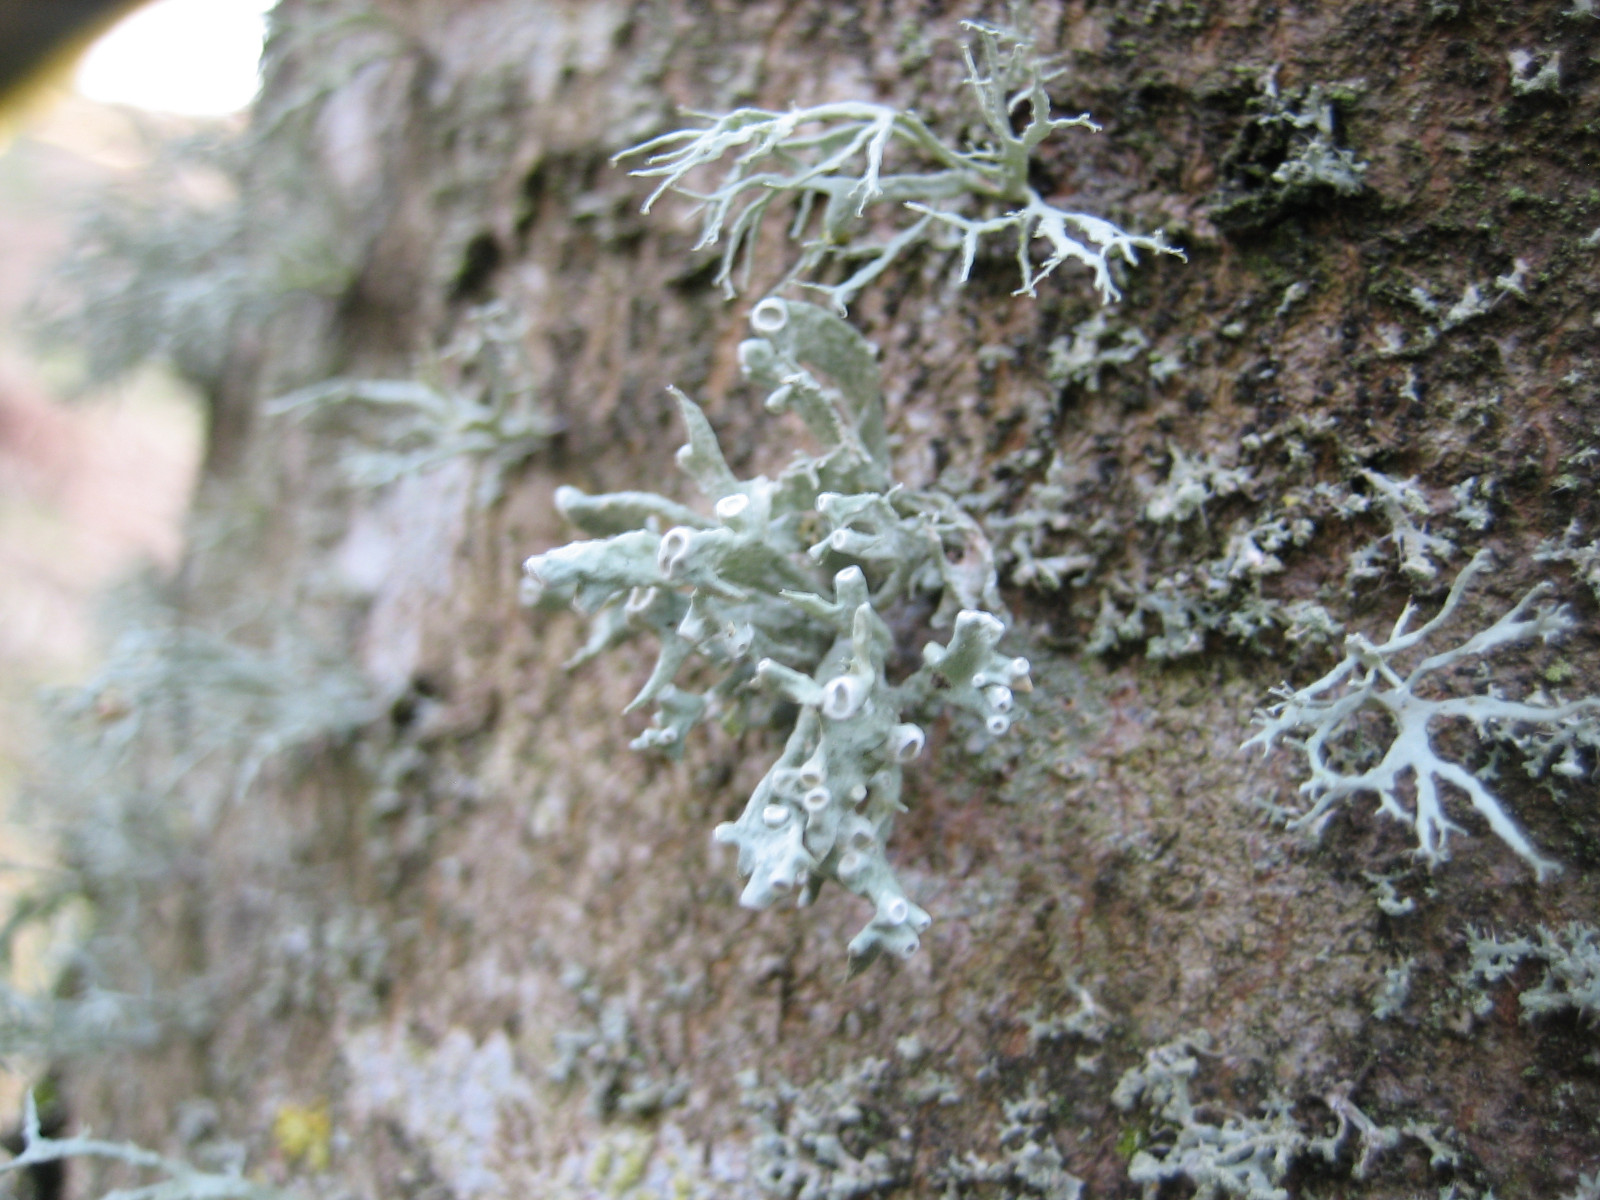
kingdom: Fungi
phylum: Ascomycota
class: Lecanoromycetes
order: Lecanorales
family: Ramalinaceae
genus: Ramalina
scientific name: Ramalina fastigiata
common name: tue-grenlav
